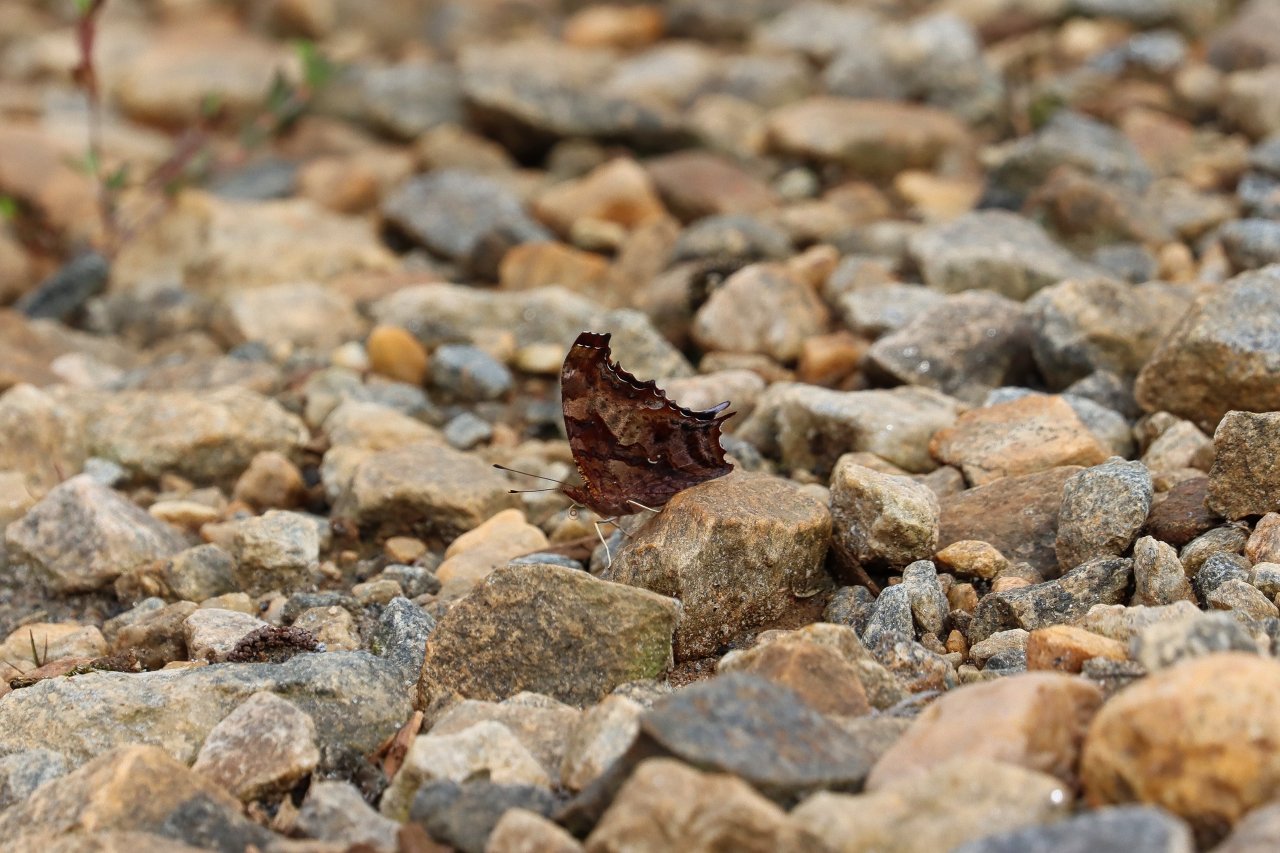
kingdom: Animalia
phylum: Arthropoda
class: Insecta
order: Lepidoptera
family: Nymphalidae
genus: Polygonia
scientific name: Polygonia interrogationis
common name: Question Mark
